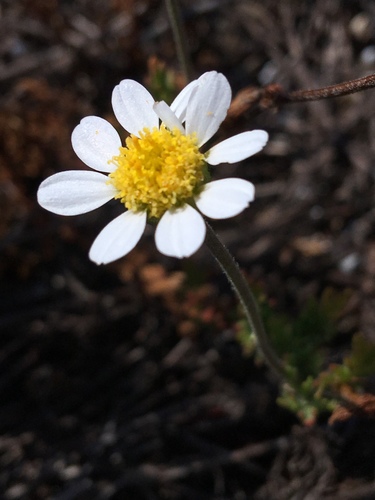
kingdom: Plantae
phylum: Tracheophyta
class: Magnoliopsida
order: Asterales
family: Asteraceae
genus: Anthemis
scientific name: Anthemis maritima
